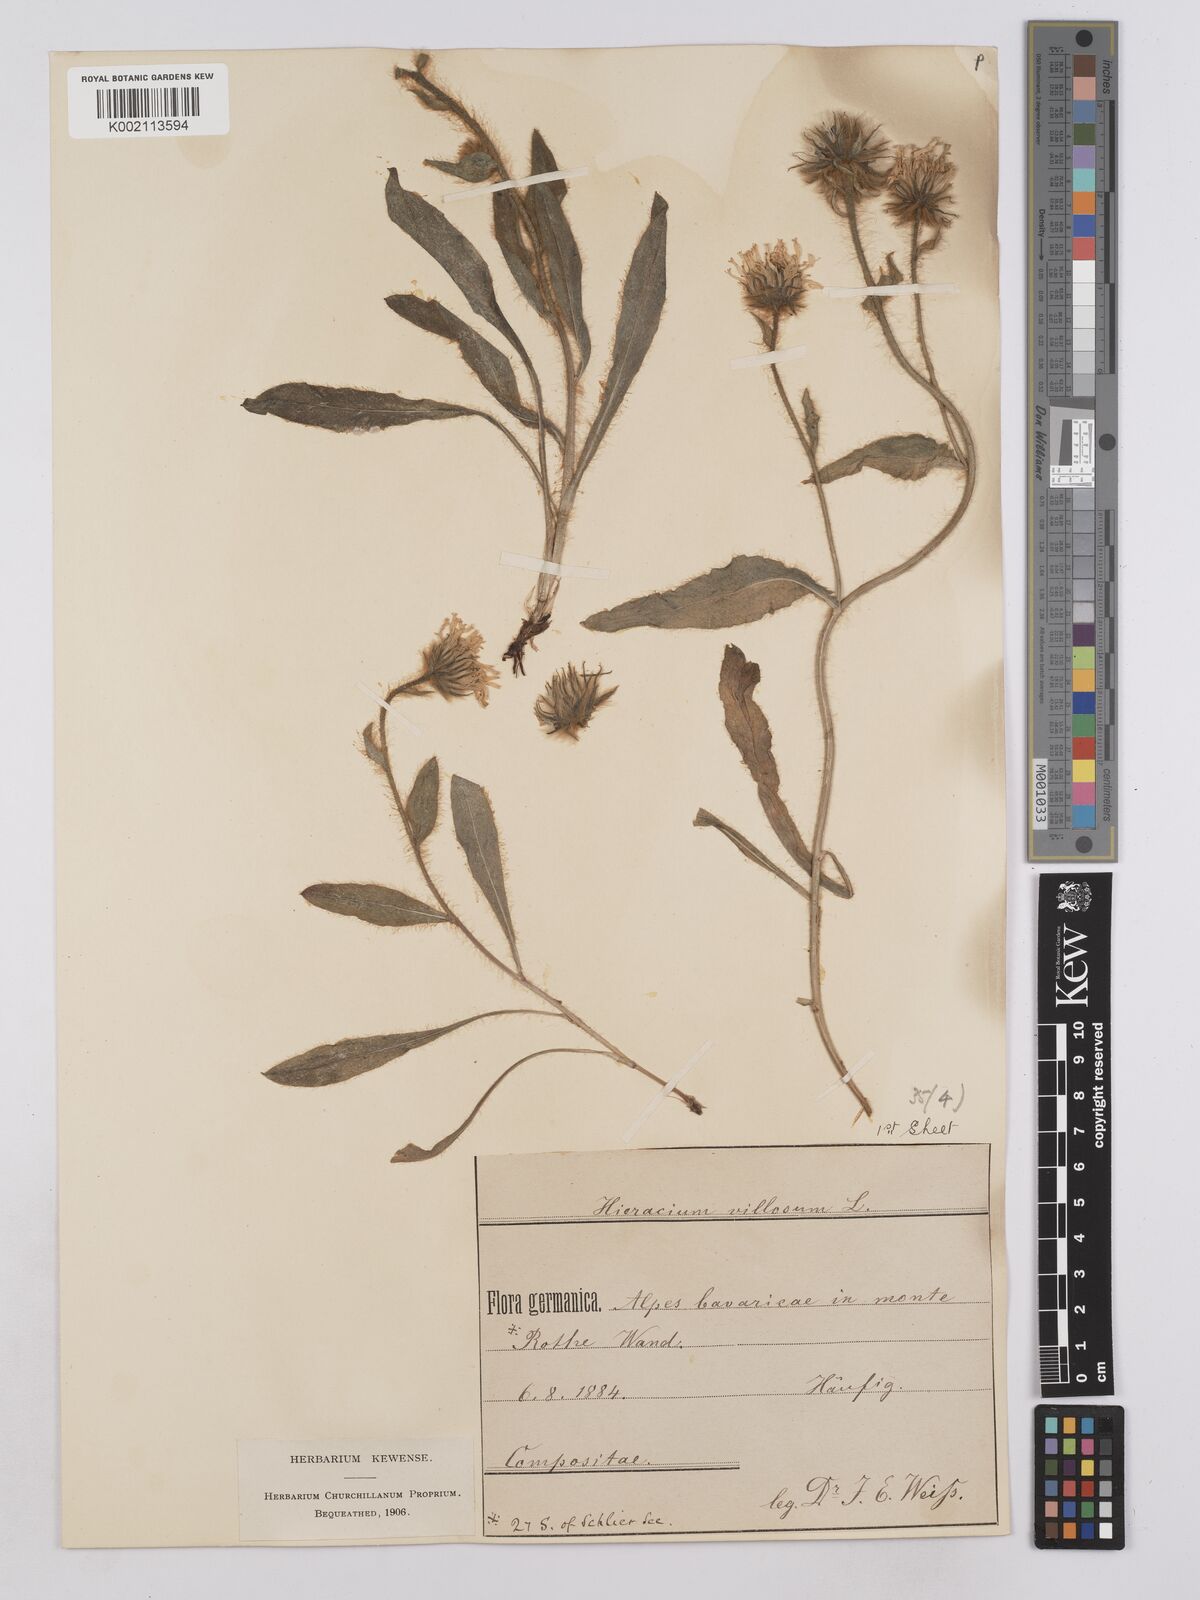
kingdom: Plantae
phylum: Tracheophyta
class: Magnoliopsida
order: Asterales
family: Asteraceae
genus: Hieracium
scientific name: Hieracium
